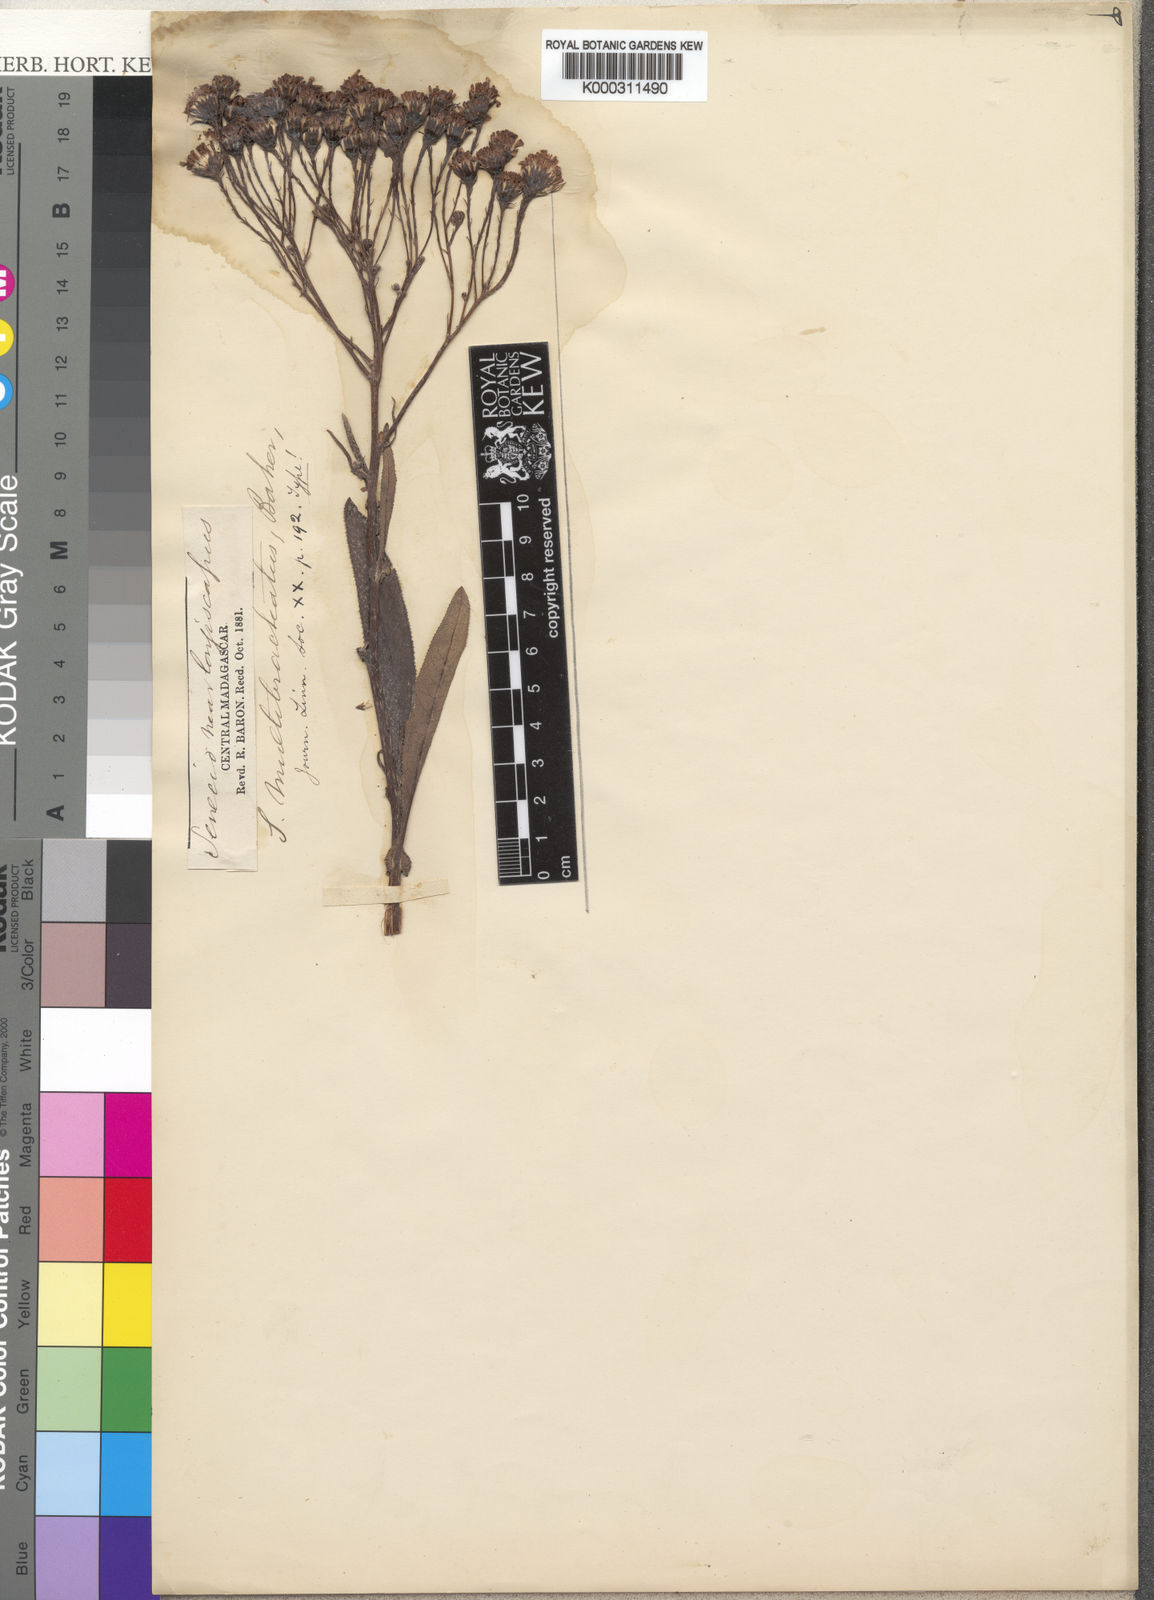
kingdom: Plantae
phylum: Tracheophyta
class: Magnoliopsida
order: Asterales
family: Asteraceae
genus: Senecio
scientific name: Senecio pleistophyllus
